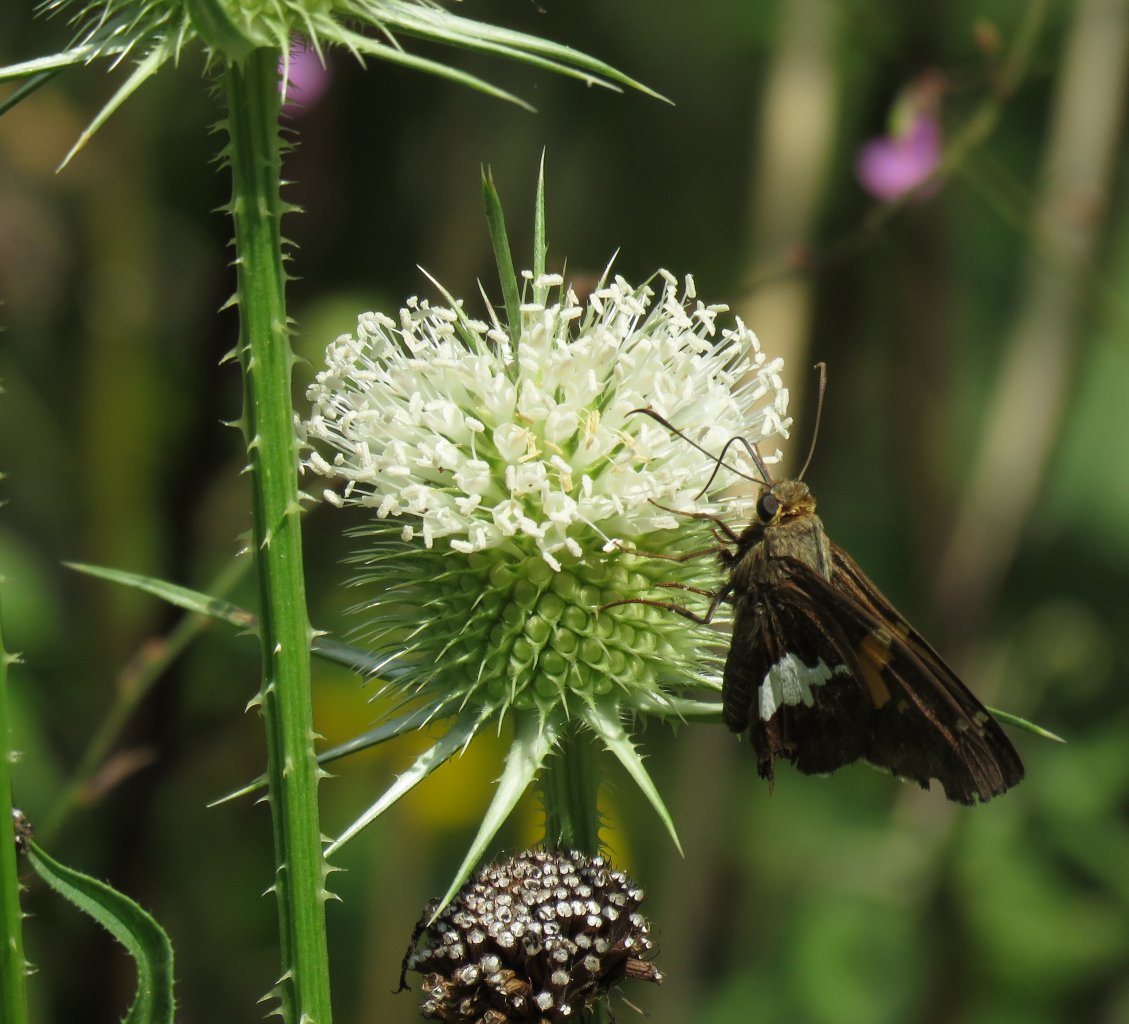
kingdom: Animalia
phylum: Arthropoda
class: Insecta
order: Lepidoptera
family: Hesperiidae
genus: Epargyreus
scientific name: Epargyreus clarus
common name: Silver-spotted Skipper
